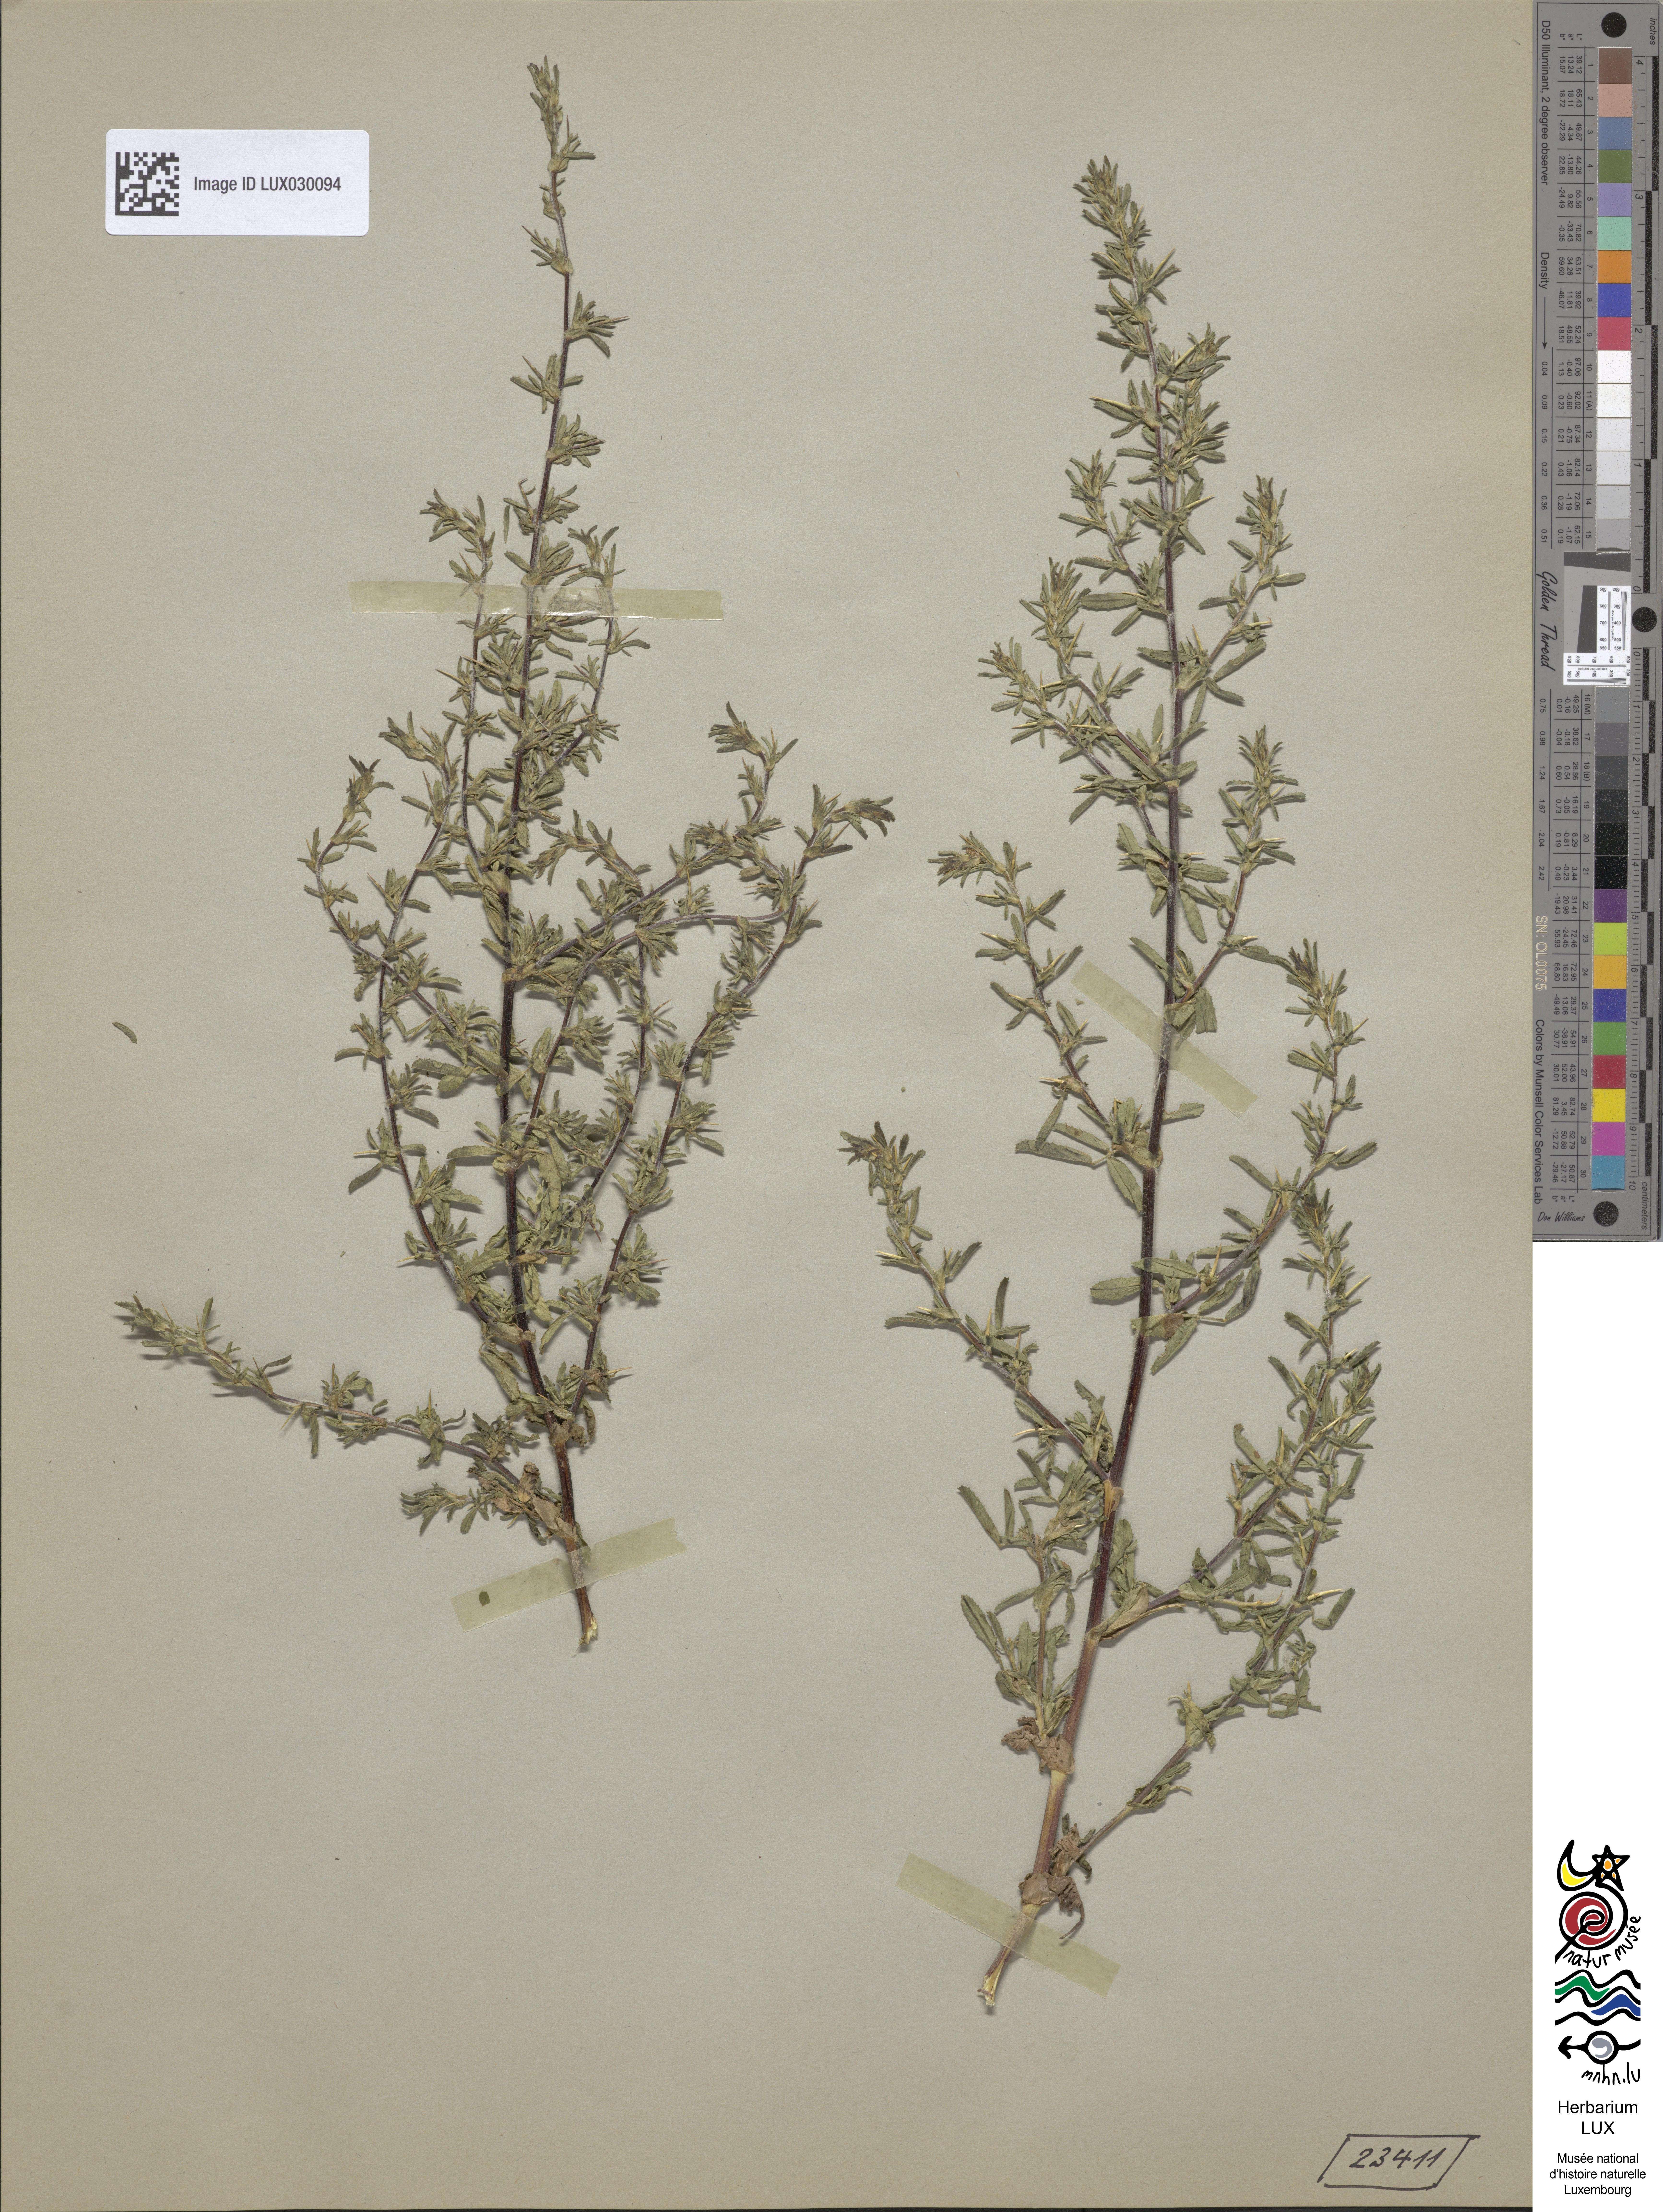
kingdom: Plantae
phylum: Tracheophyta
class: Magnoliopsida
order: Fabales
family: Fabaceae
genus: Ononis
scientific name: Ononis spinosa
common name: Spiny restharrow
